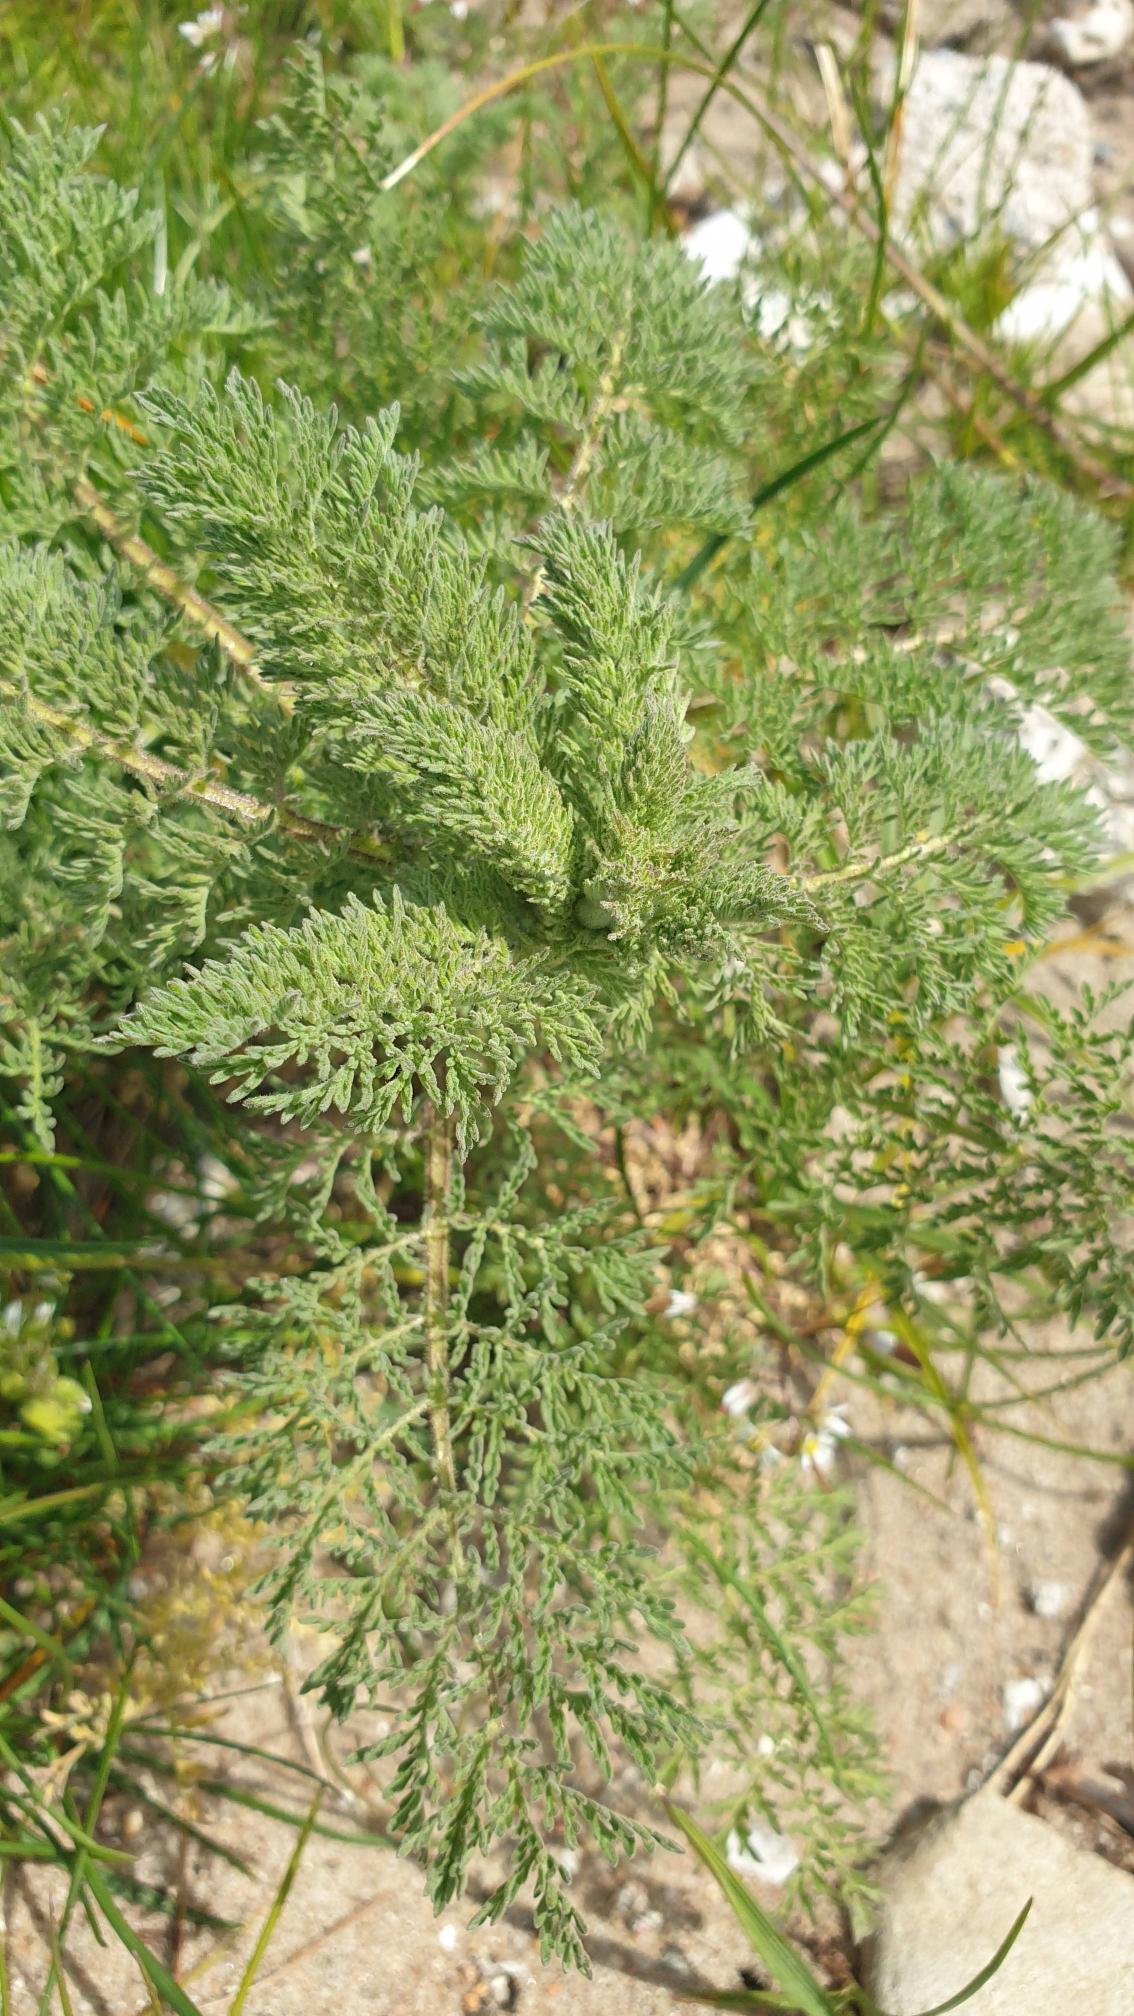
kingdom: Plantae
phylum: Tracheophyta
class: Magnoliopsida
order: Brassicales
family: Brassicaceae
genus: Descurainia
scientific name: Descurainia sophia
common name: Finbladet vejsennep
